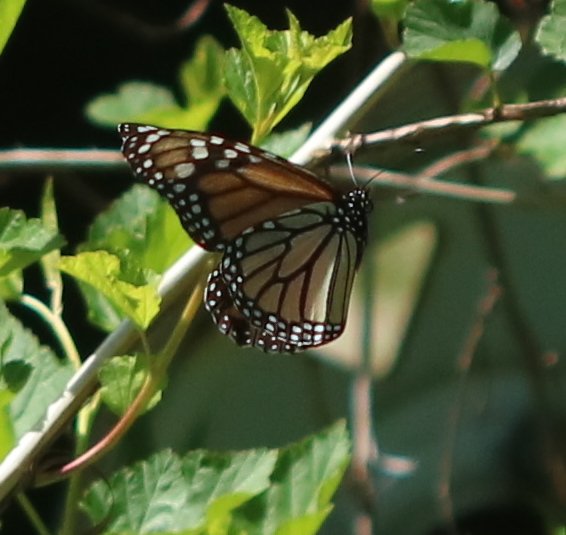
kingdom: Animalia
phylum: Arthropoda
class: Insecta
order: Lepidoptera
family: Nymphalidae
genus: Danaus
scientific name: Danaus plexippus
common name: Monarch
